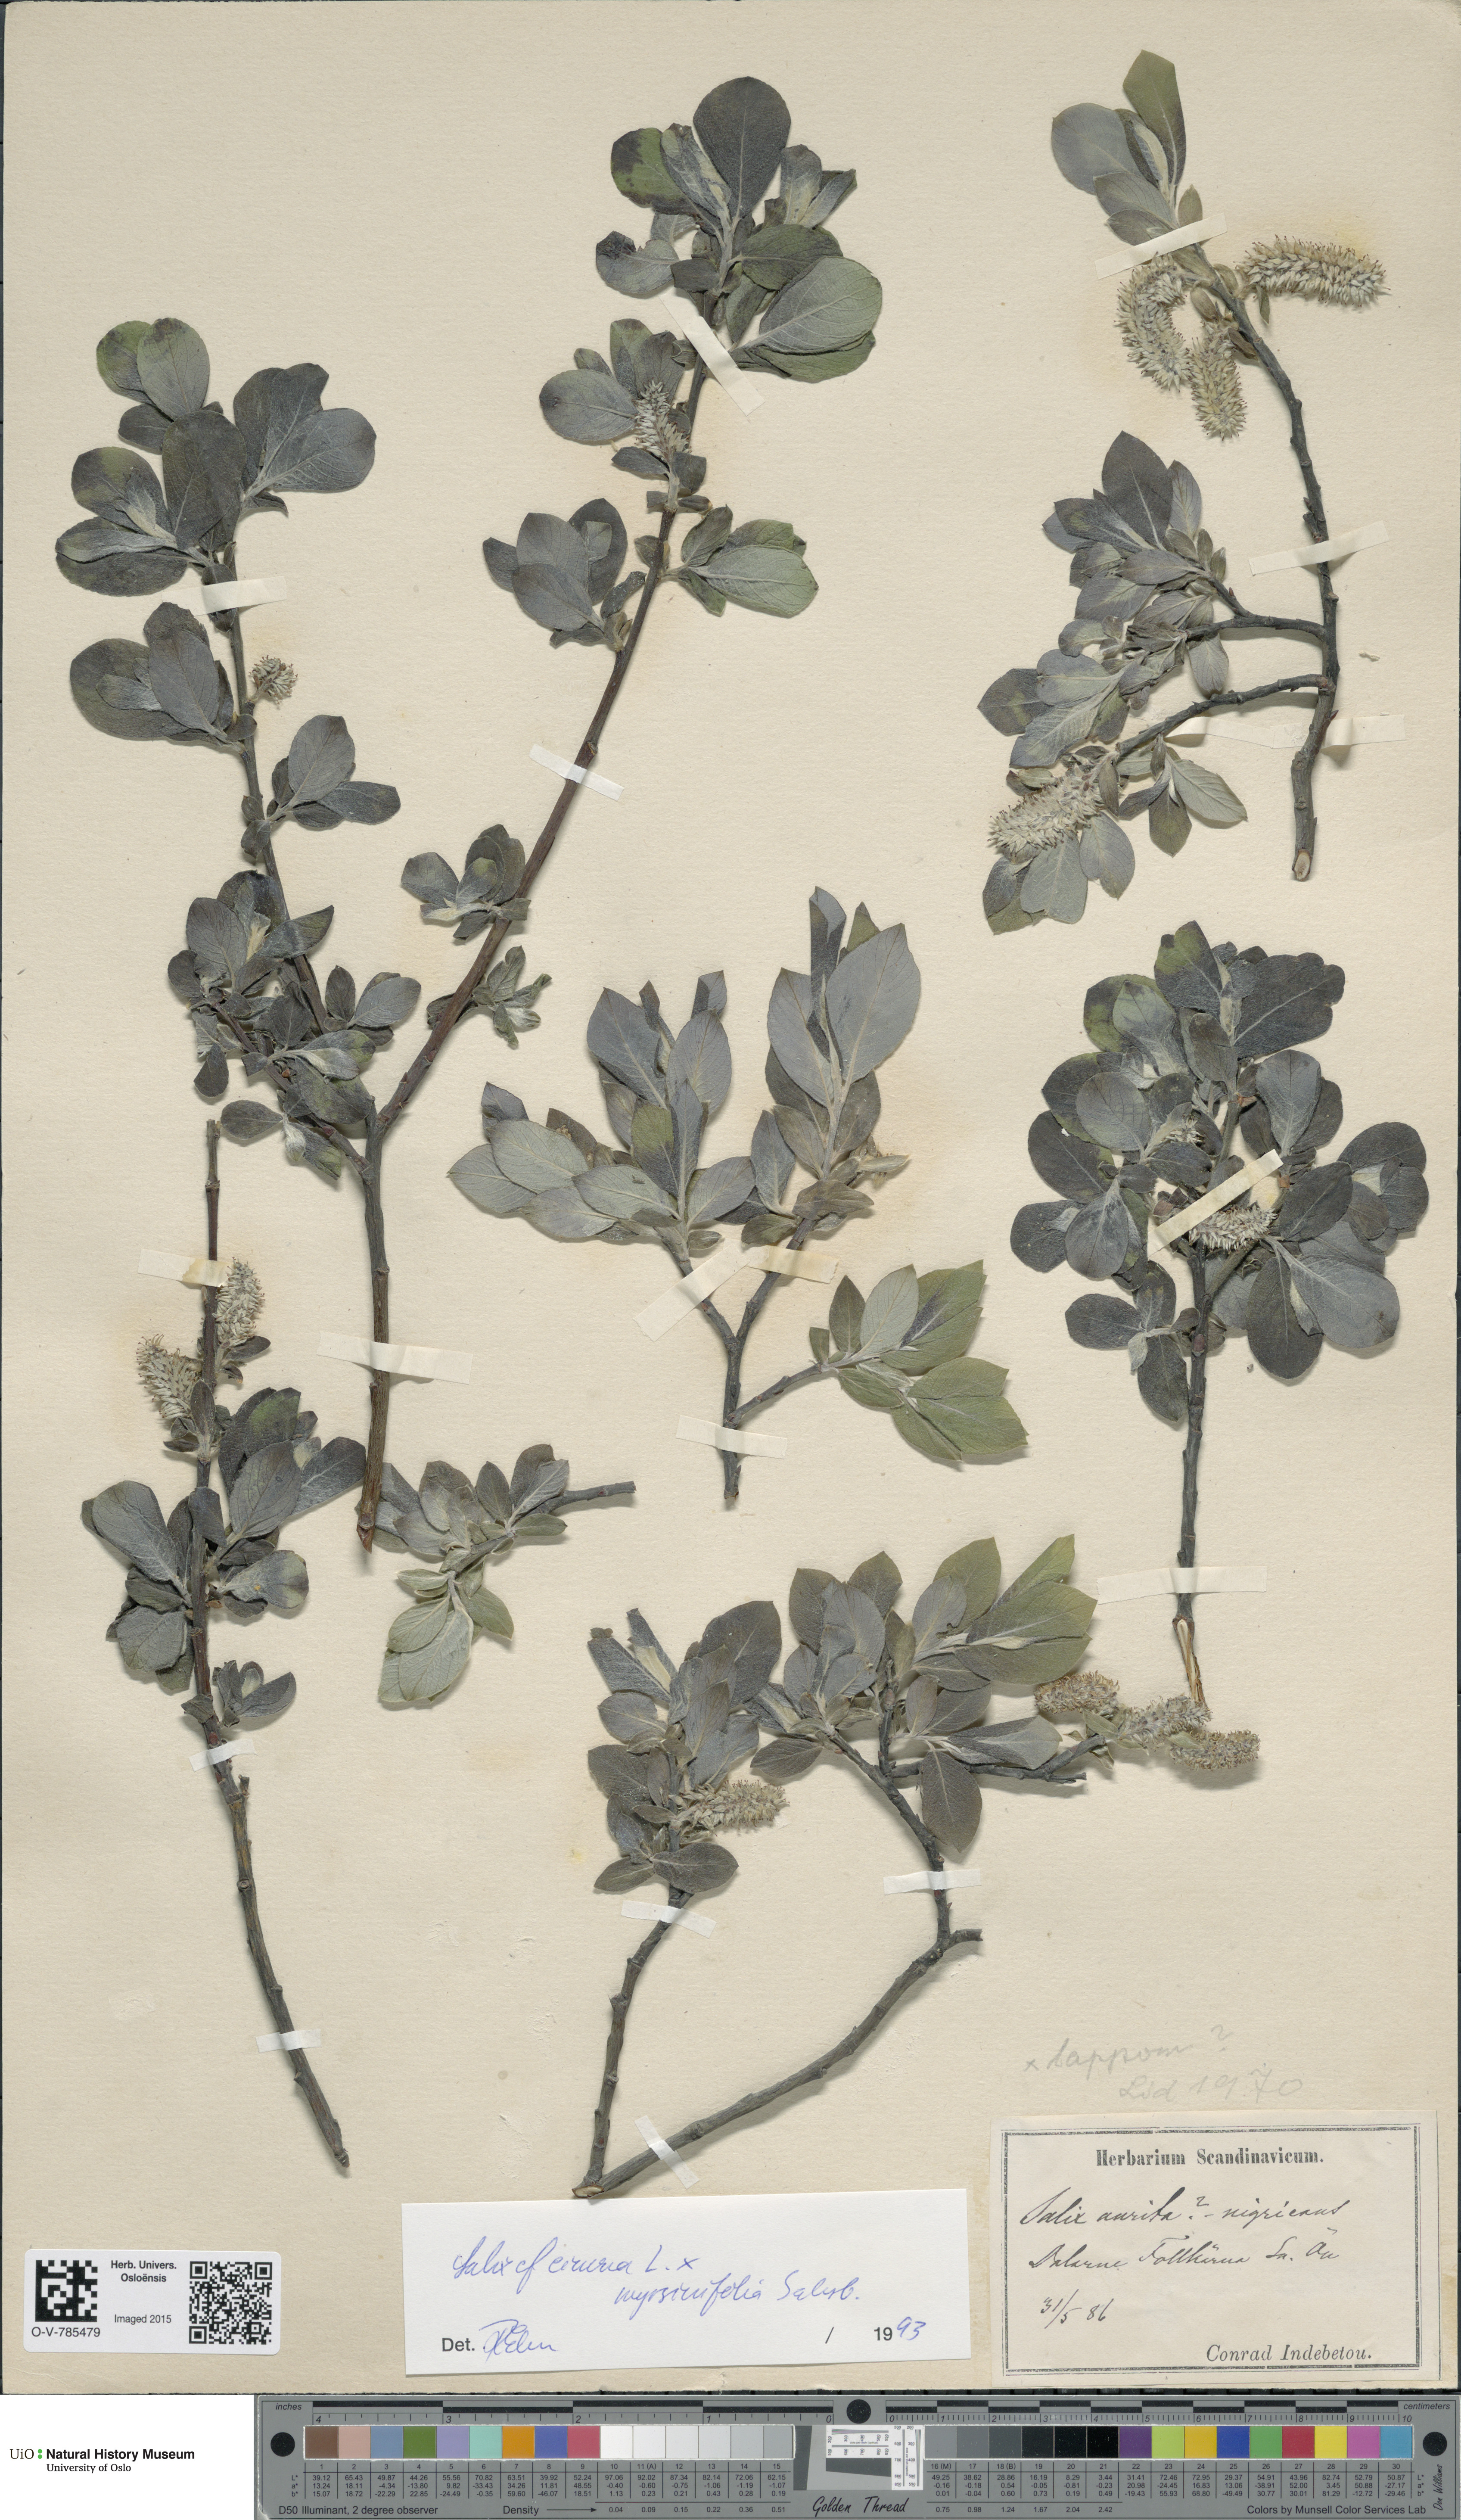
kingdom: Plantae
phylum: Tracheophyta
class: Magnoliopsida
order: Malpighiales
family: Salicaceae
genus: Salix
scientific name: Salix
